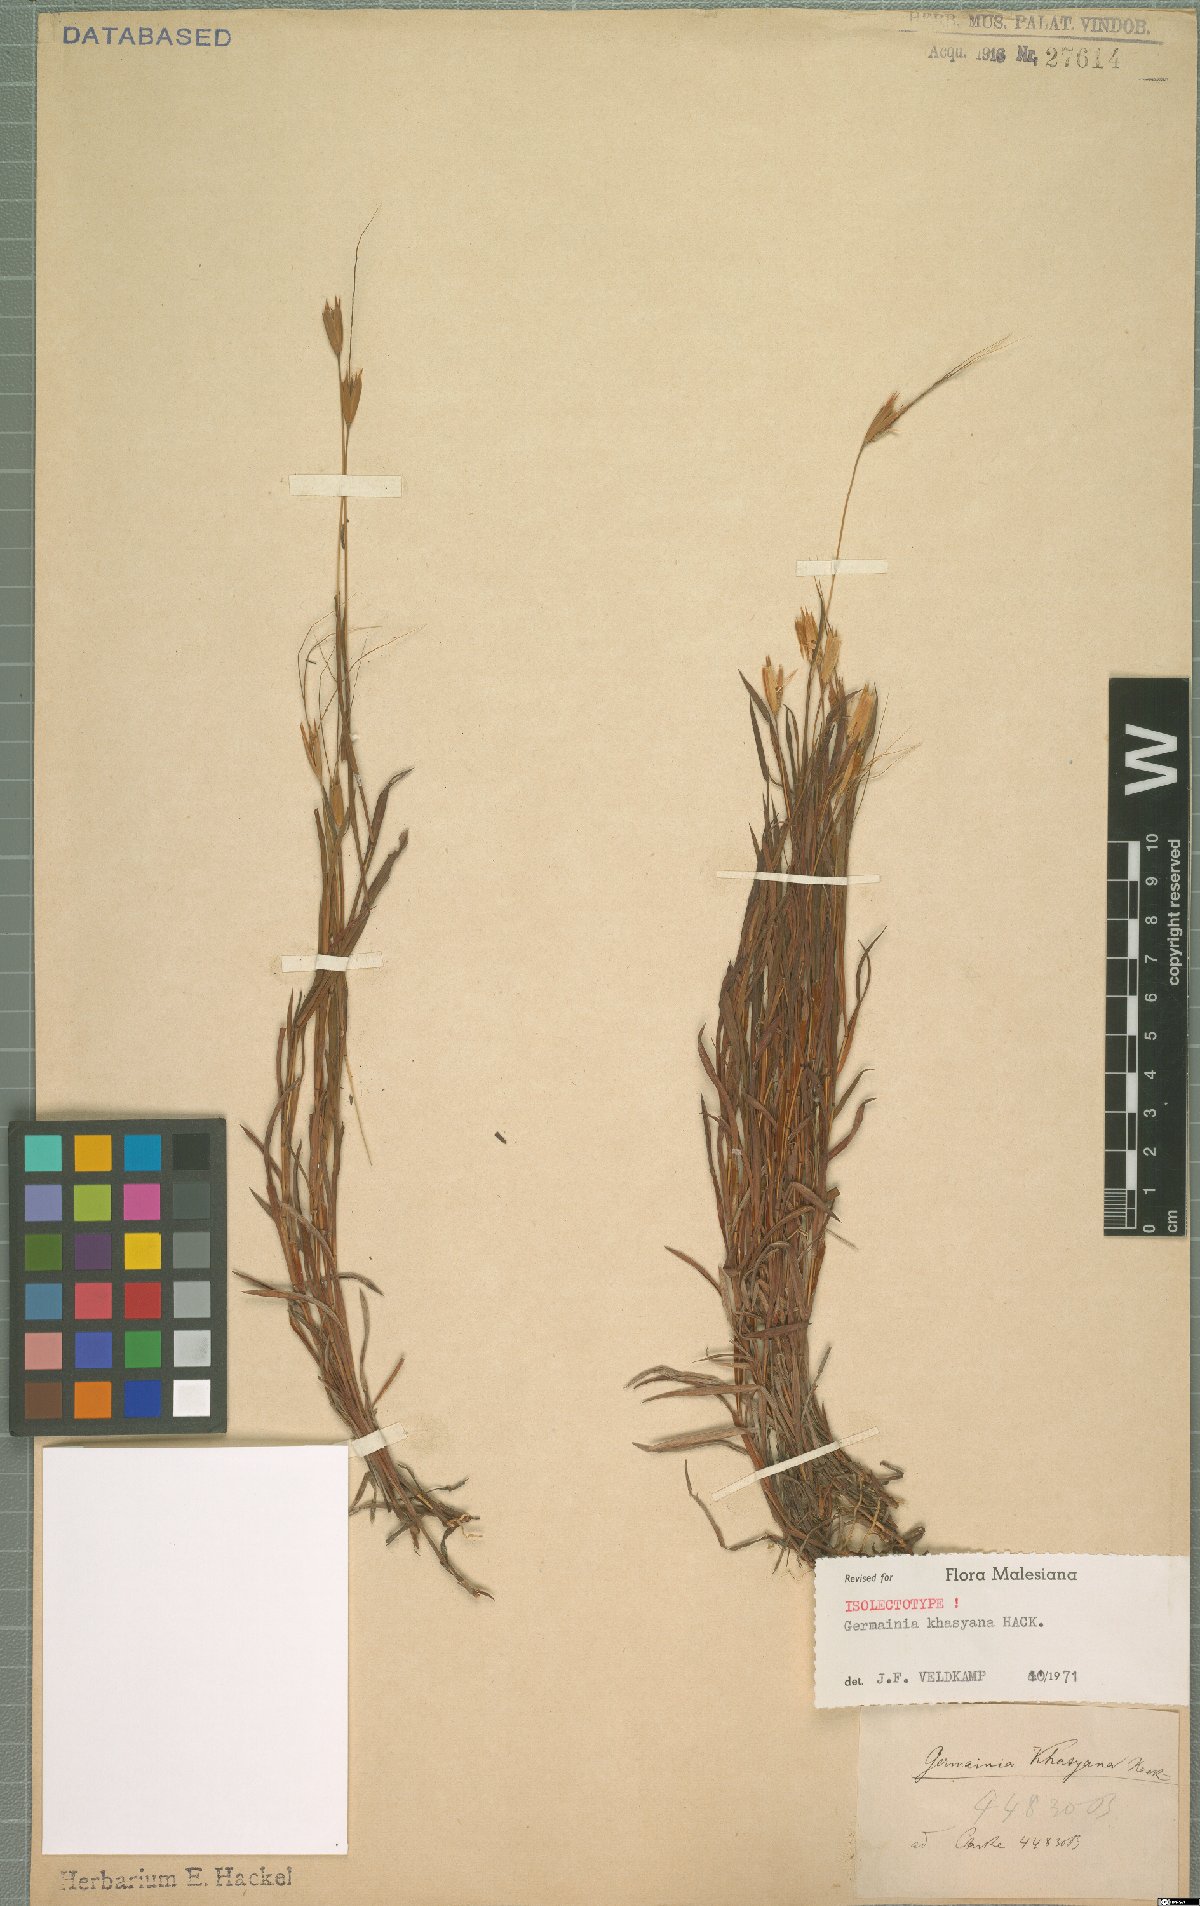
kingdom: Plantae
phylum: Tracheophyta
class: Liliopsida
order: Poales
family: Poaceae
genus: Germainia
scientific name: Germainia khasyana
